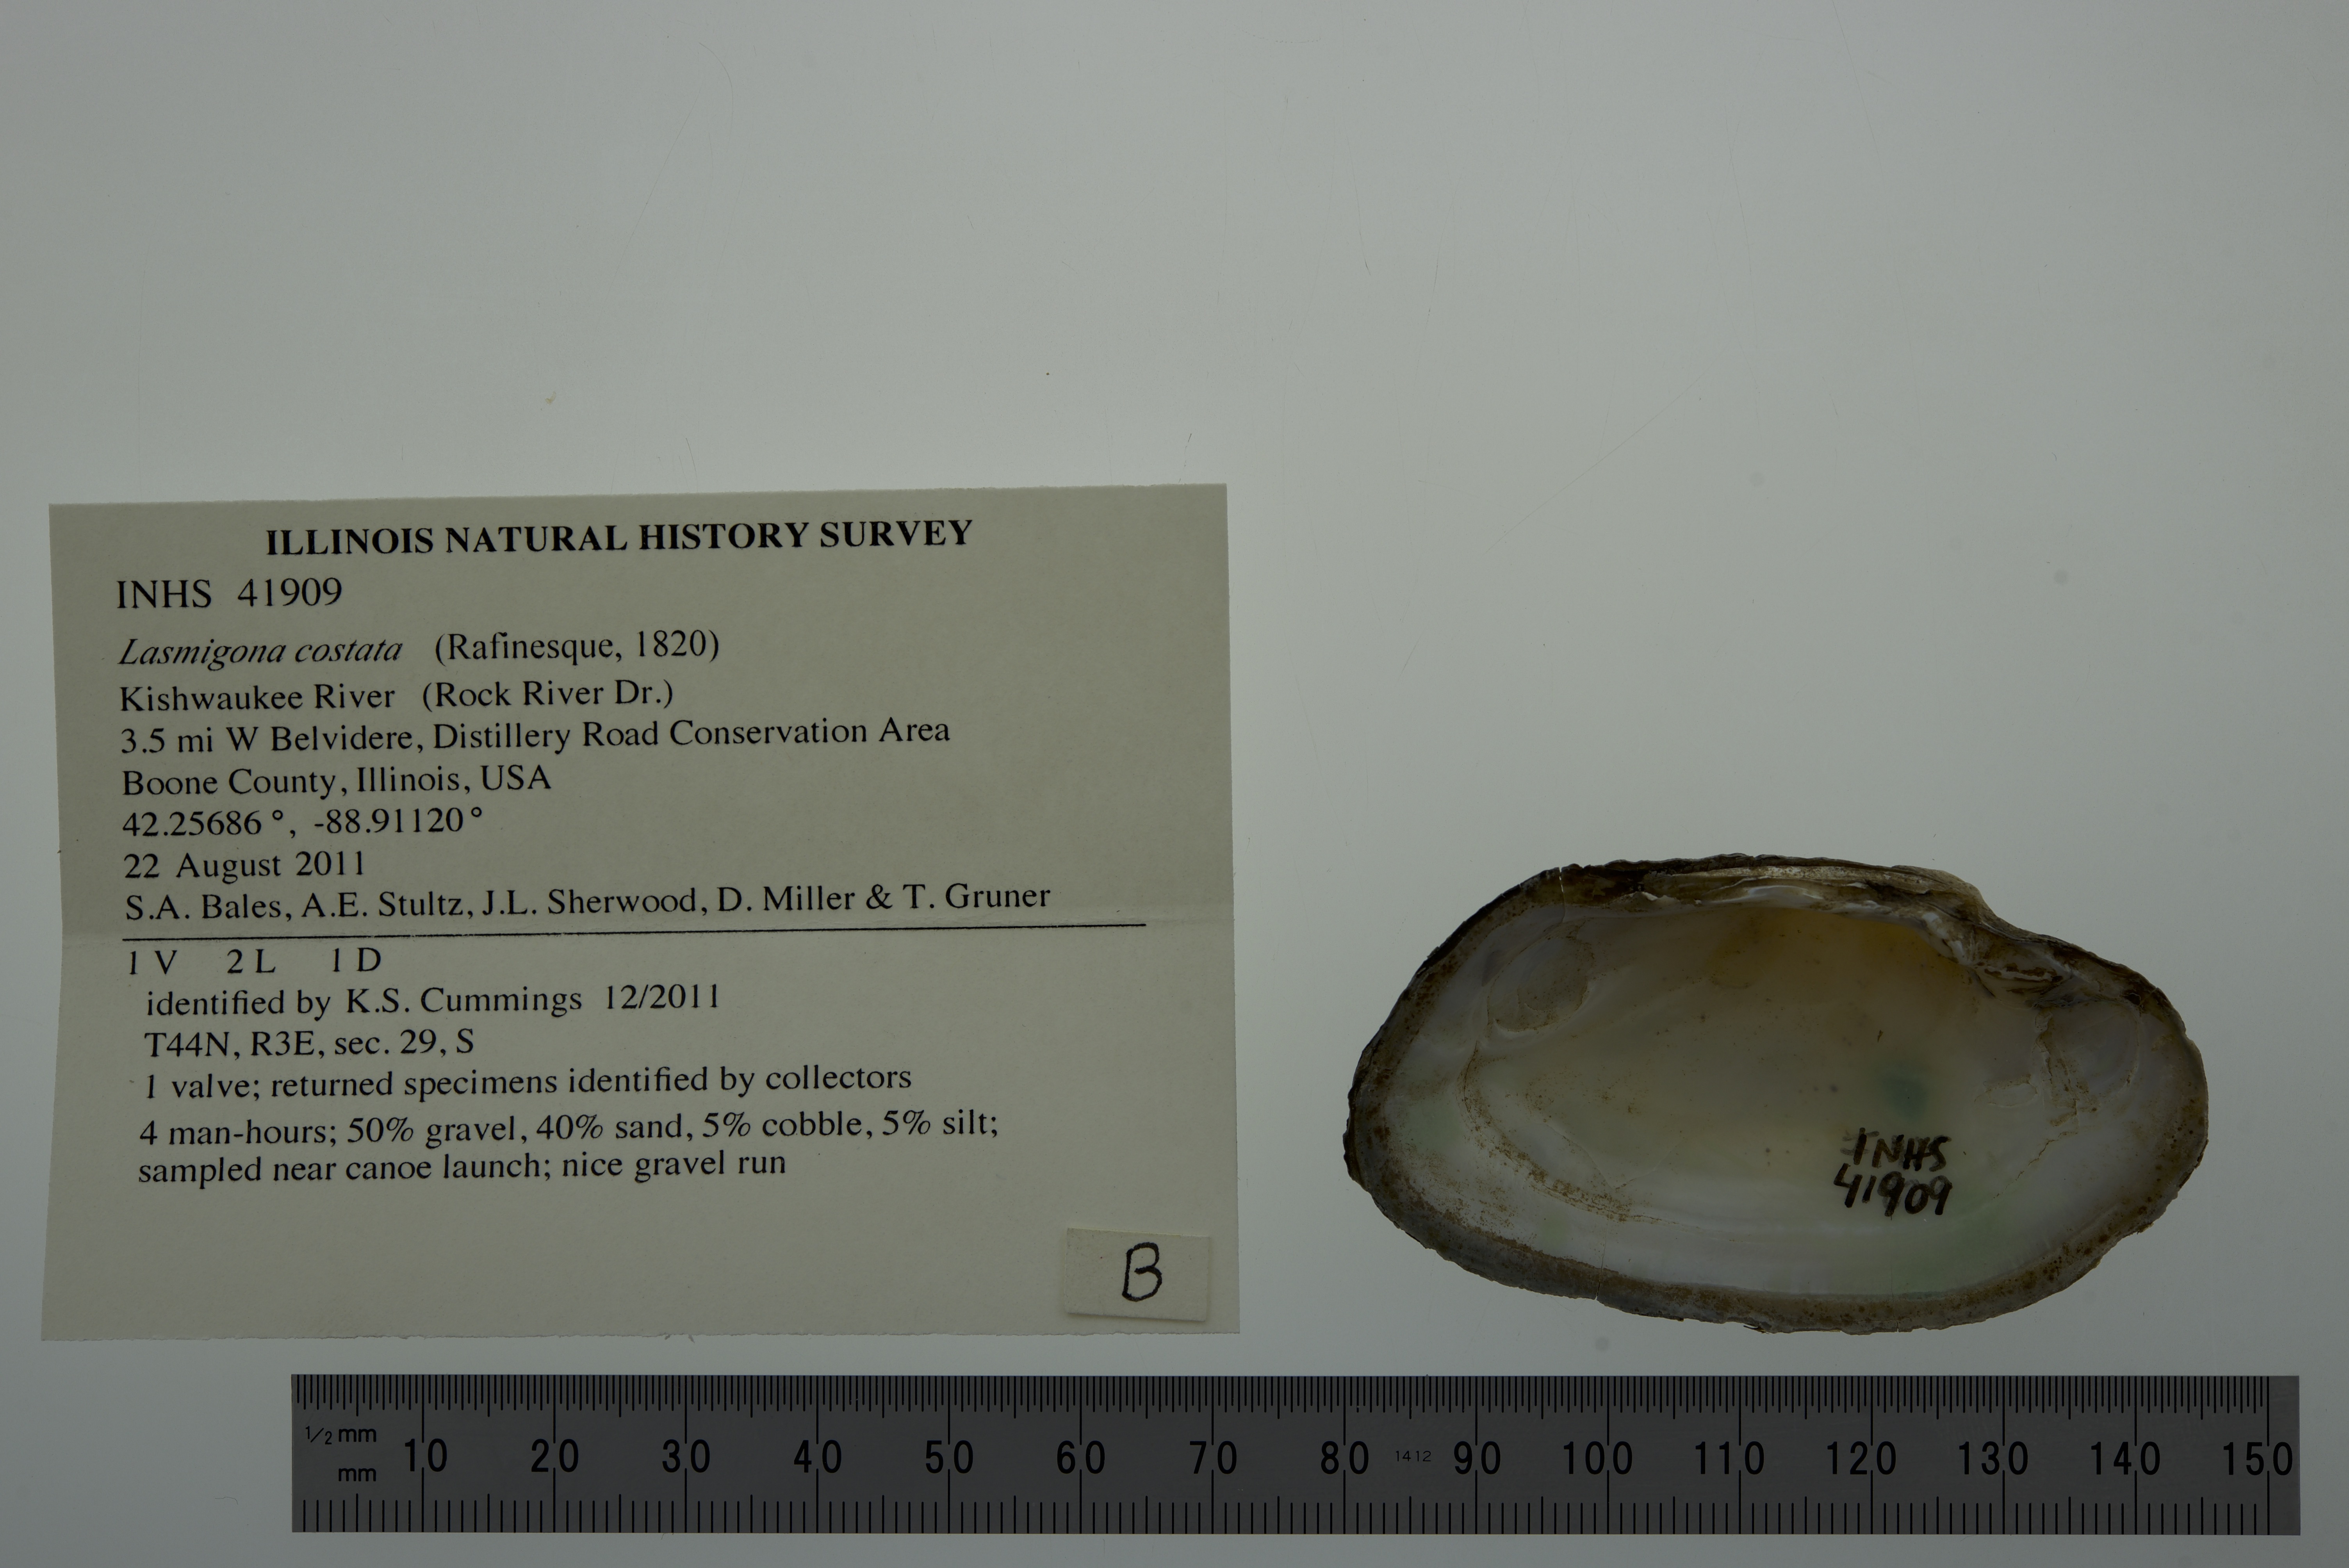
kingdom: Animalia
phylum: Mollusca
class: Bivalvia
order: Unionida
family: Unionidae
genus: Lasmigona
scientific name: Lasmigona costata
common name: Flutedshell
